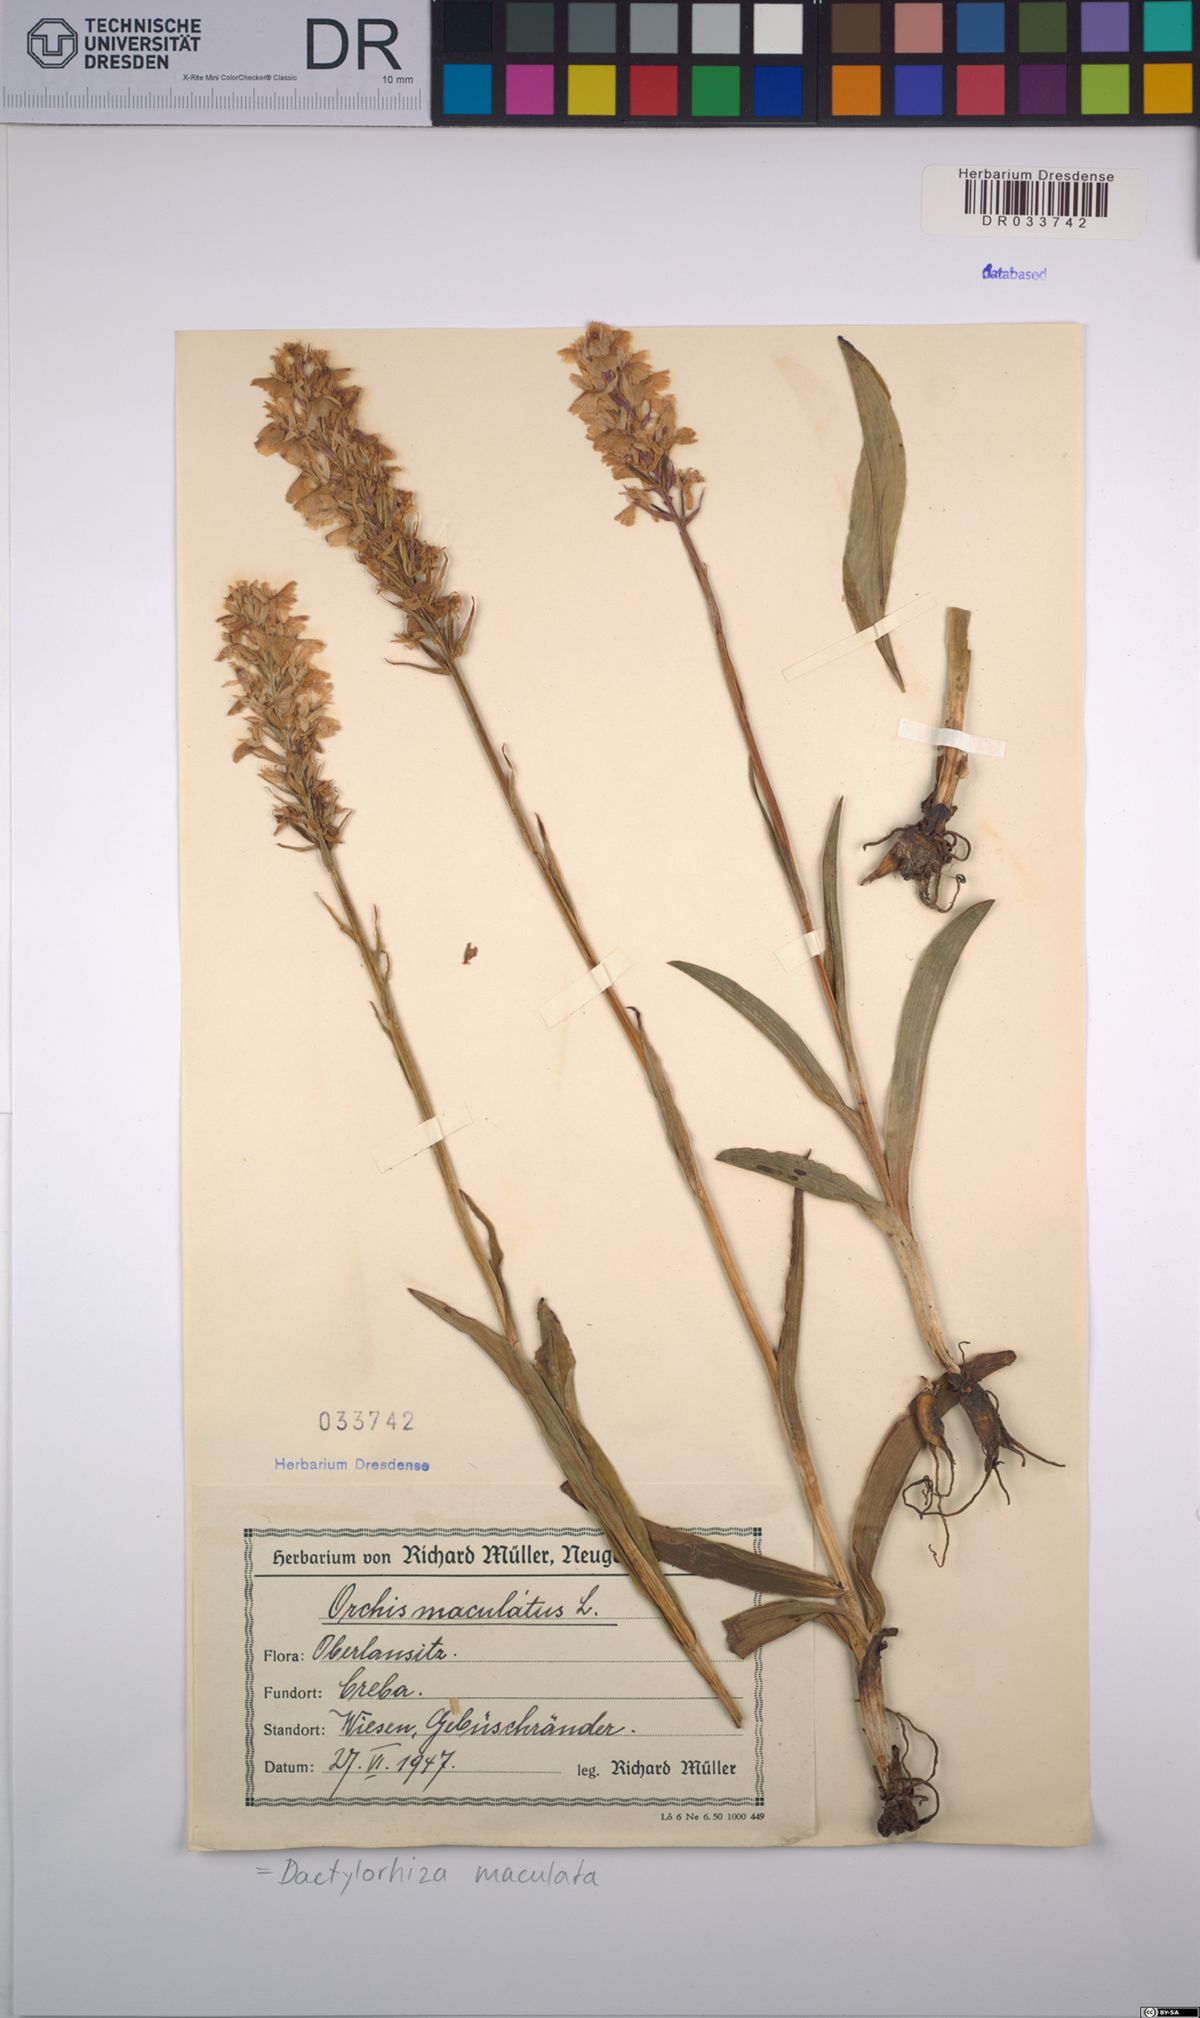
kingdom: Plantae
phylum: Tracheophyta
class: Liliopsida
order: Asparagales
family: Orchidaceae
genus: Dactylorhiza
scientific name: Dactylorhiza maculata
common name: Heath spotted-orchid
